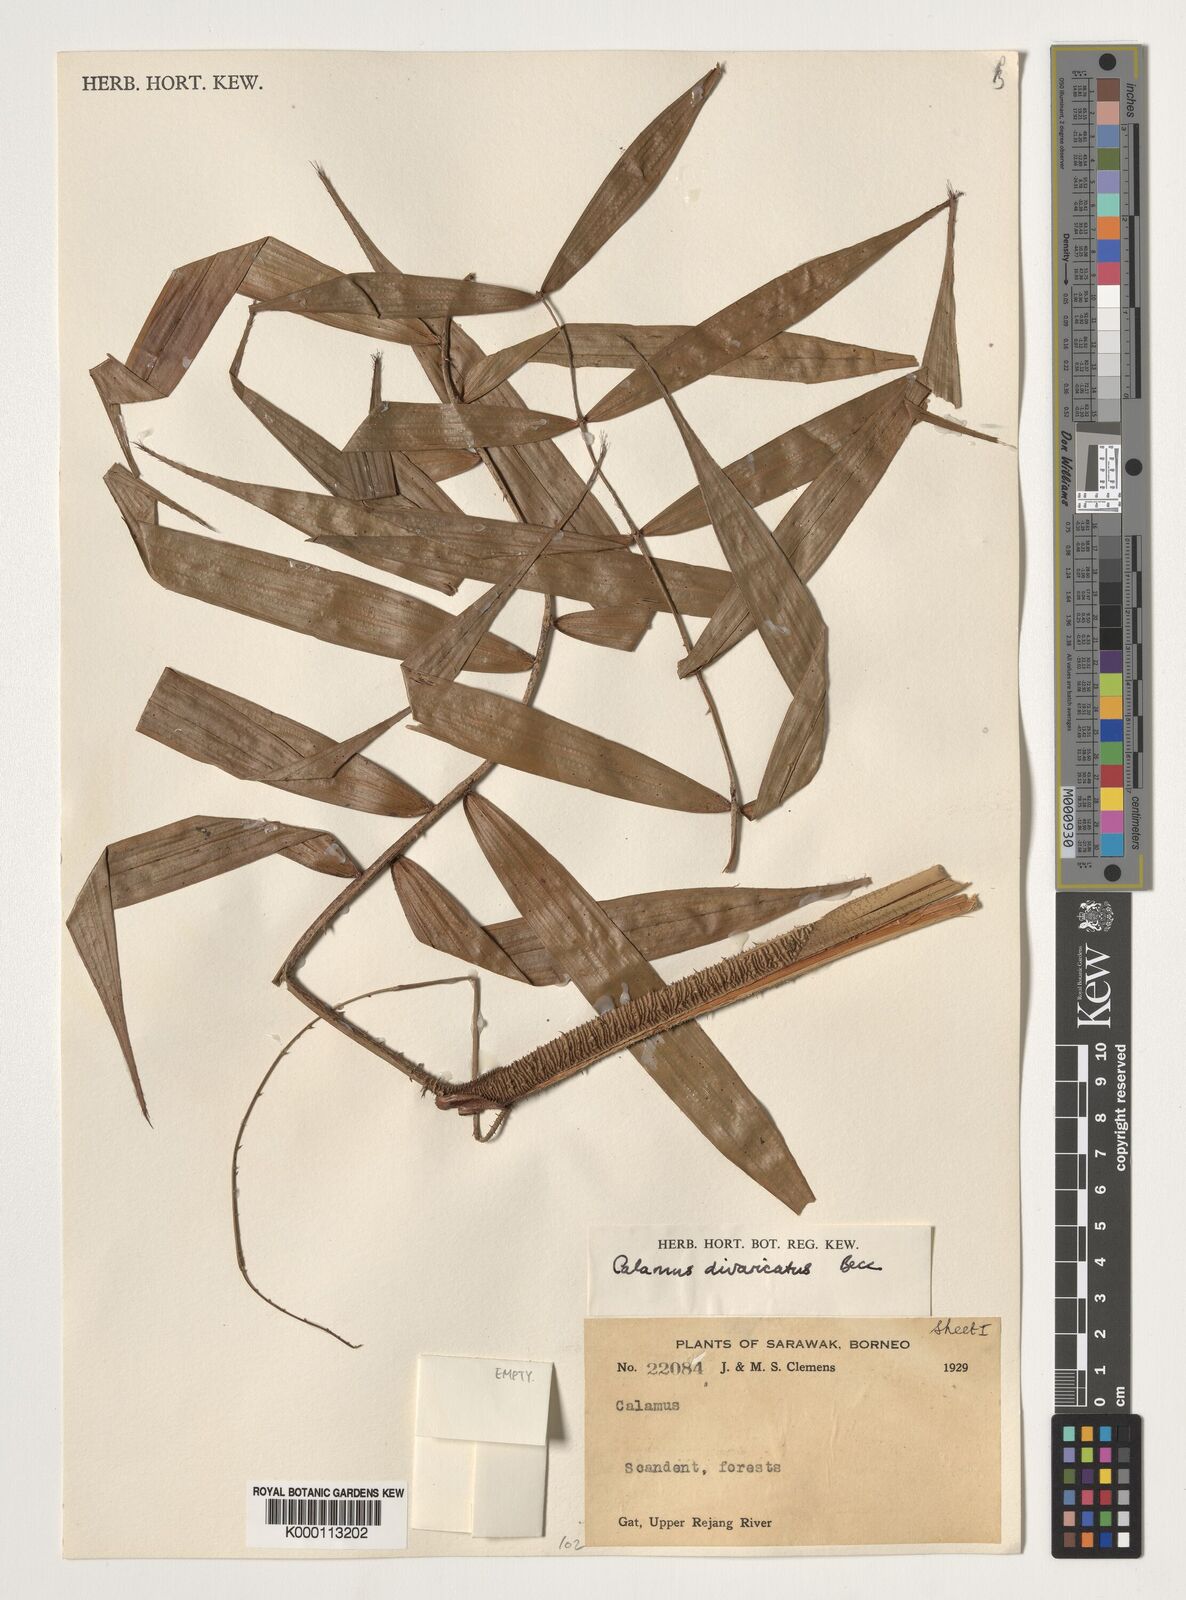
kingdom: Plantae
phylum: Tracheophyta
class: Liliopsida
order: Arecales
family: Arecaceae
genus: Calamus
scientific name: Calamus divaricatus
